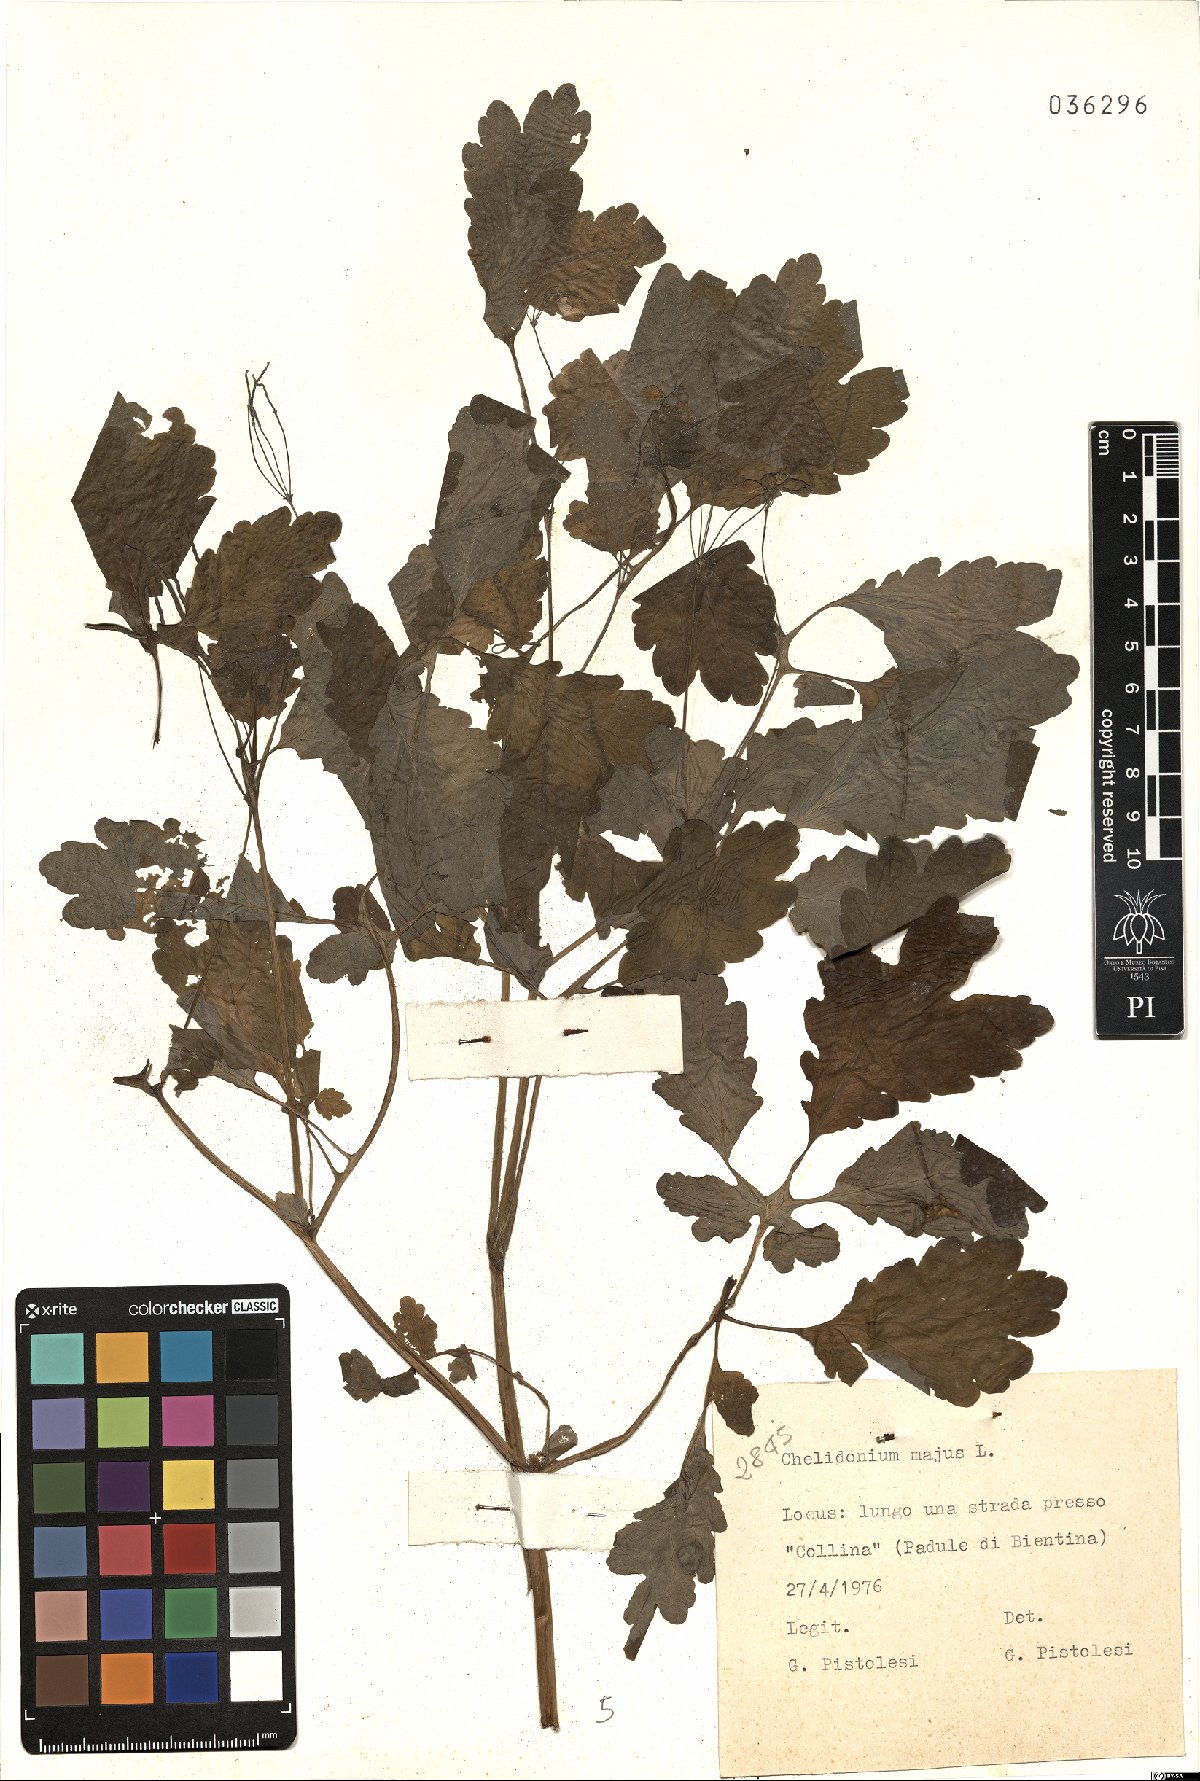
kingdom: Plantae
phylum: Tracheophyta
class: Magnoliopsida
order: Ranunculales
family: Papaveraceae
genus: Chelidonium
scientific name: Chelidonium majus
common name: Greater celandine
